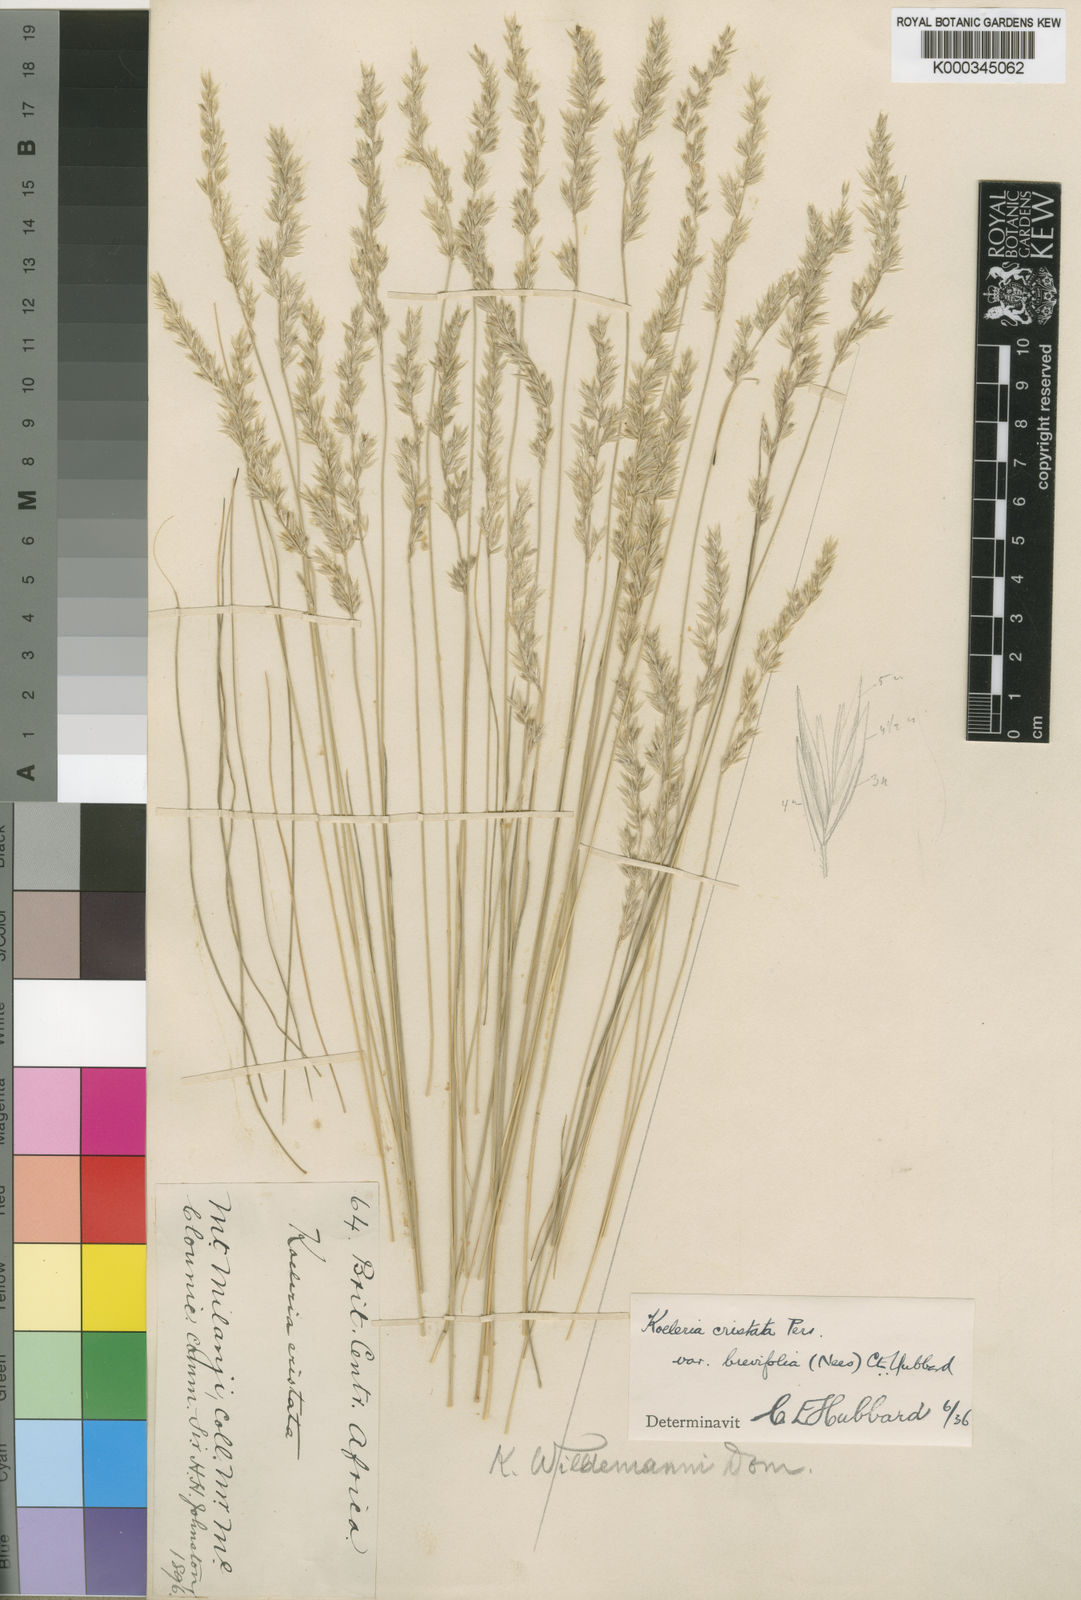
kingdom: Plantae
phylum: Tracheophyta
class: Liliopsida
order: Poales
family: Poaceae
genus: Koeleria
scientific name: Koeleria capensis
